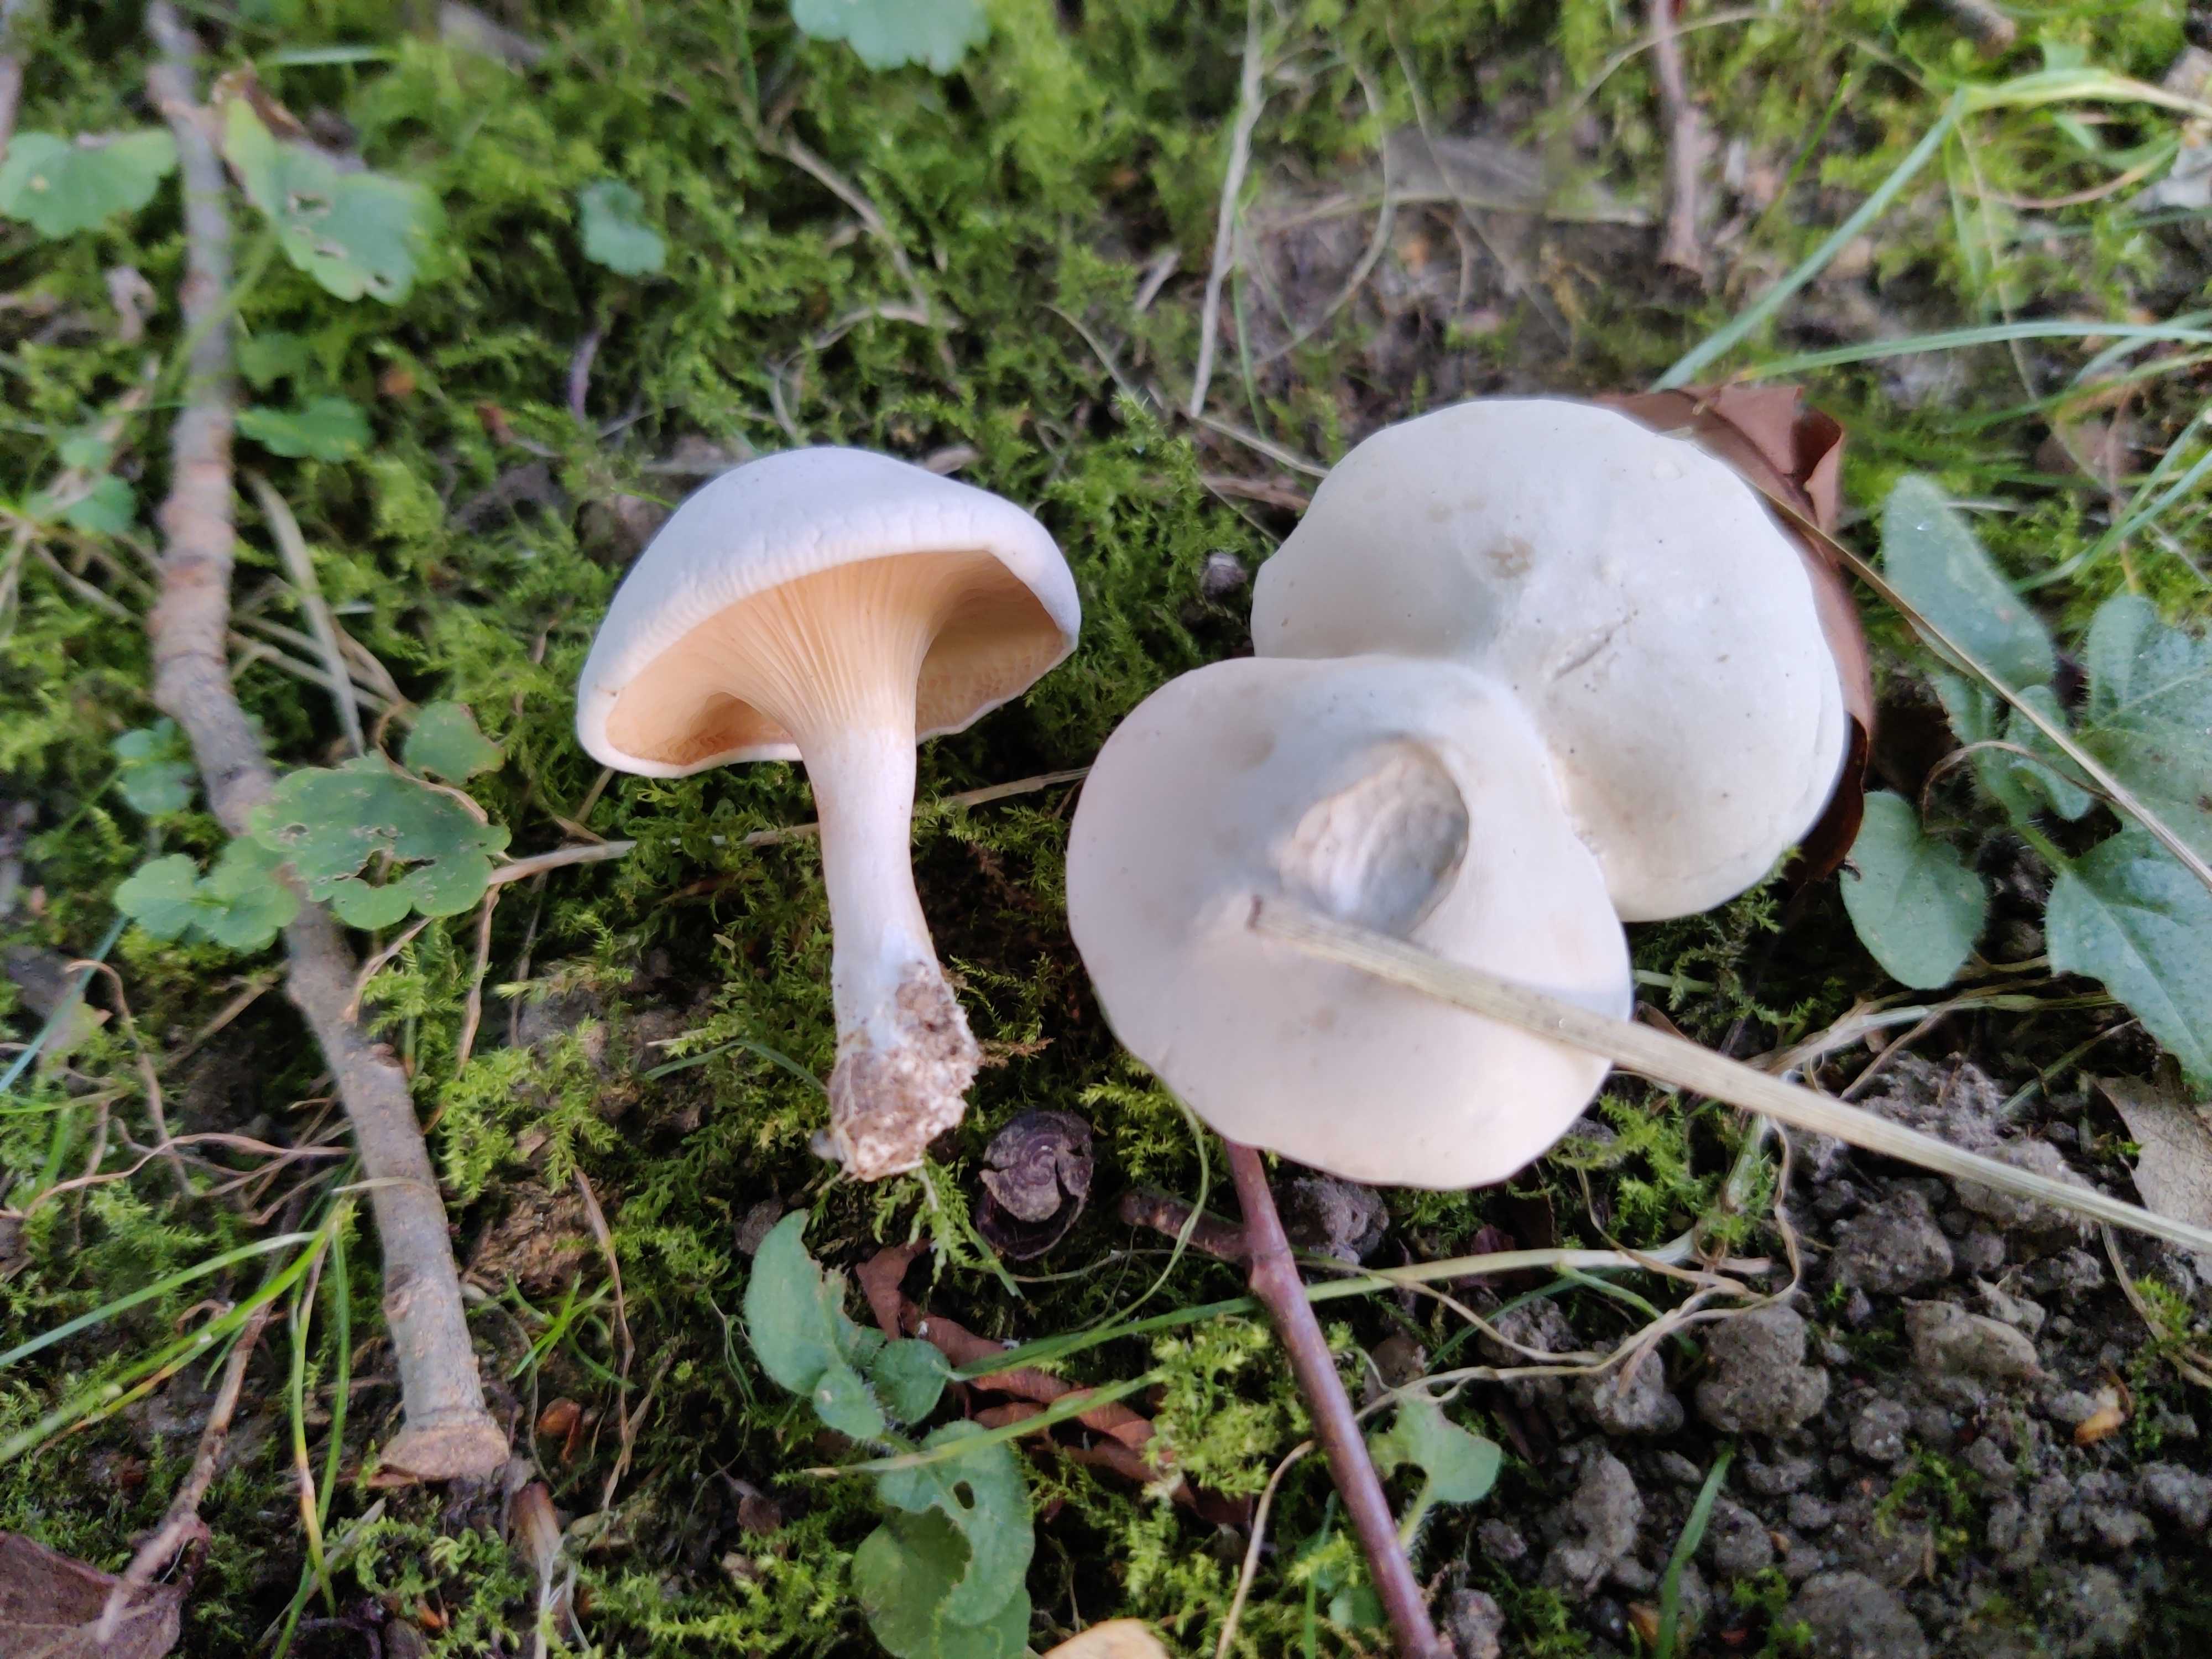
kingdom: Fungi
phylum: Basidiomycota
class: Agaricomycetes
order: Agaricales
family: Entolomataceae
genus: Clitopilus
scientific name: Clitopilus prunulus
